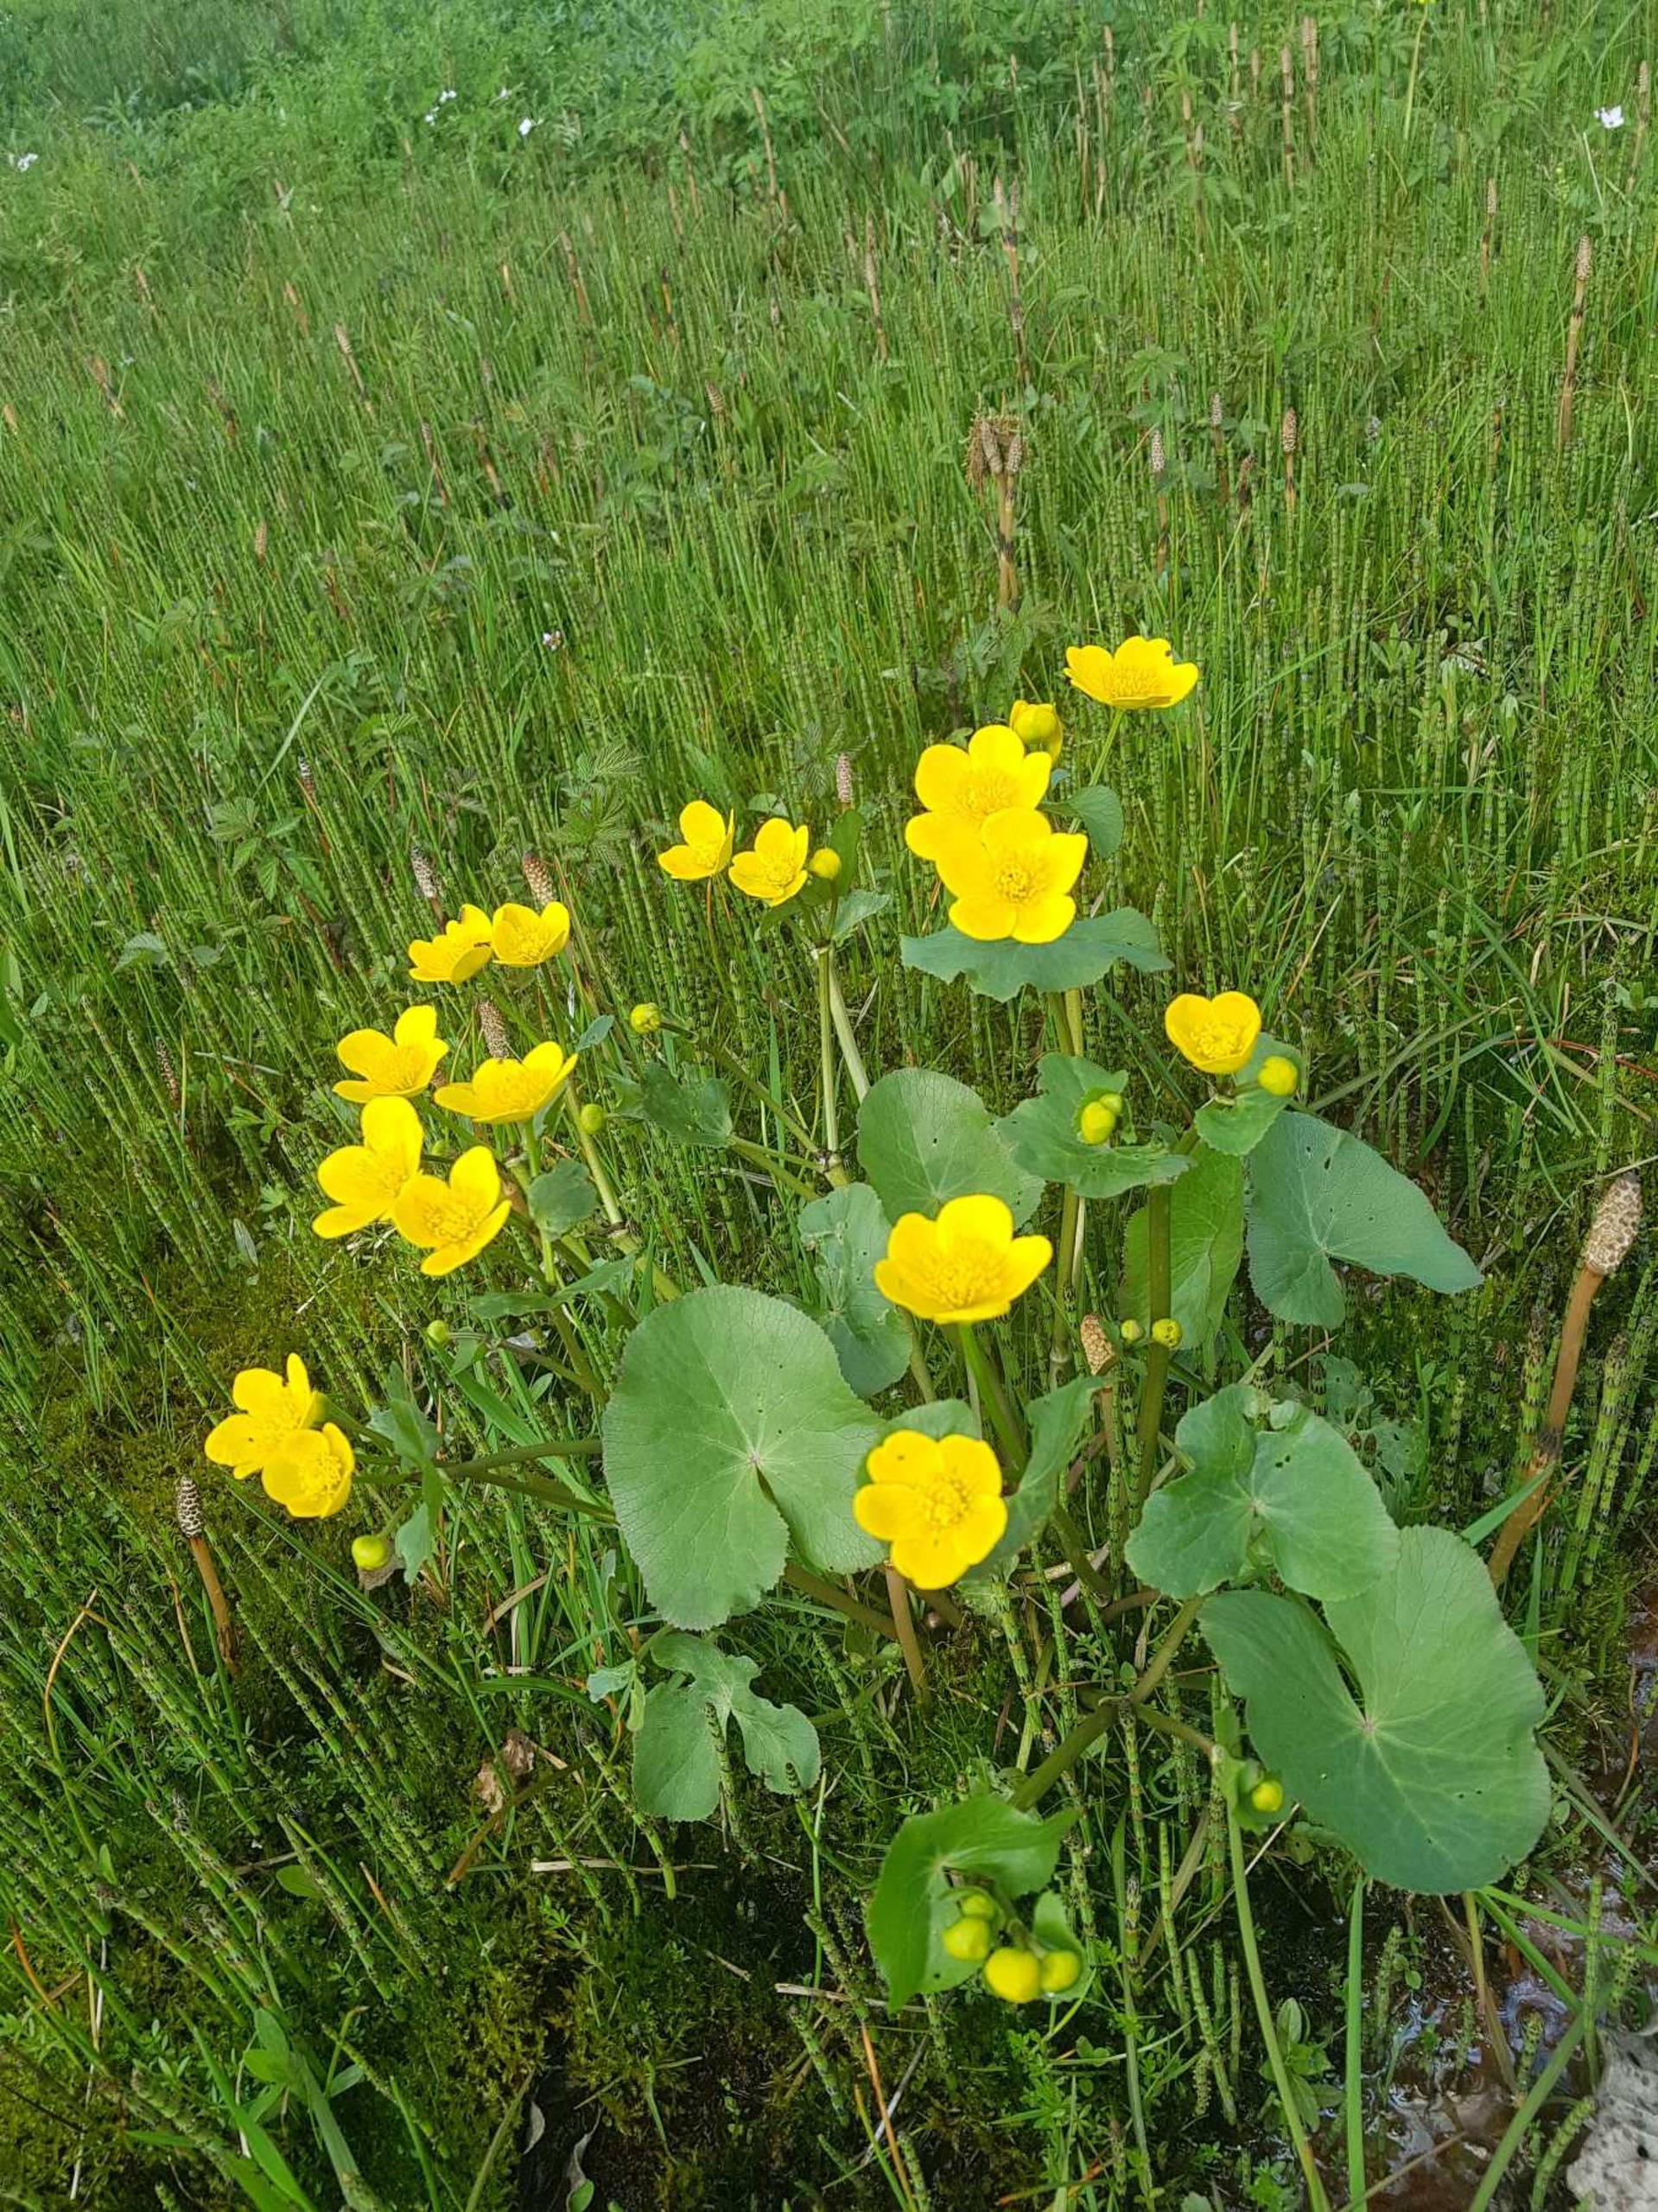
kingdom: Plantae
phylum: Tracheophyta
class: Magnoliopsida
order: Ranunculales
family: Ranunculaceae
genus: Caltha
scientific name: Caltha palustris
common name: Eng-kabbeleje
